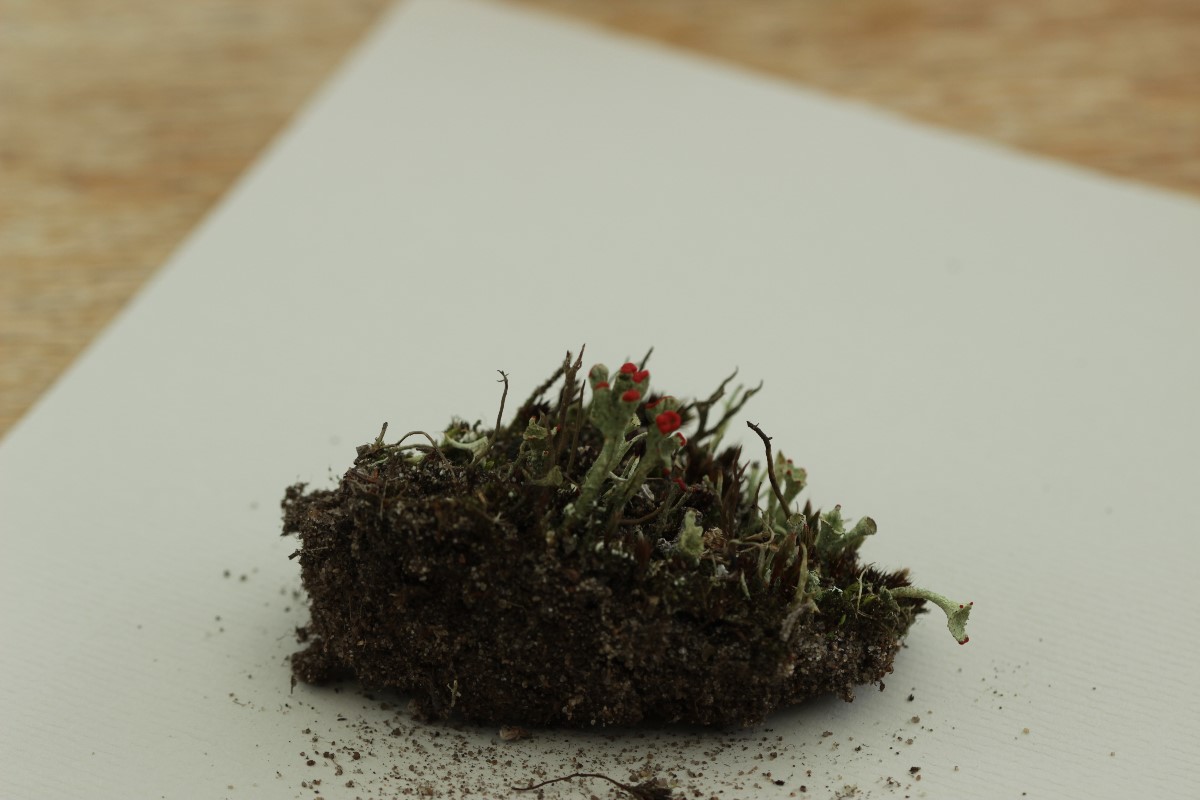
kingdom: Fungi
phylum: Ascomycota
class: Lecanoromycetes
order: Lecanorales
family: Cladoniaceae
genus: Cladonia
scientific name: Cladonia diversa
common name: rød bægerlav
